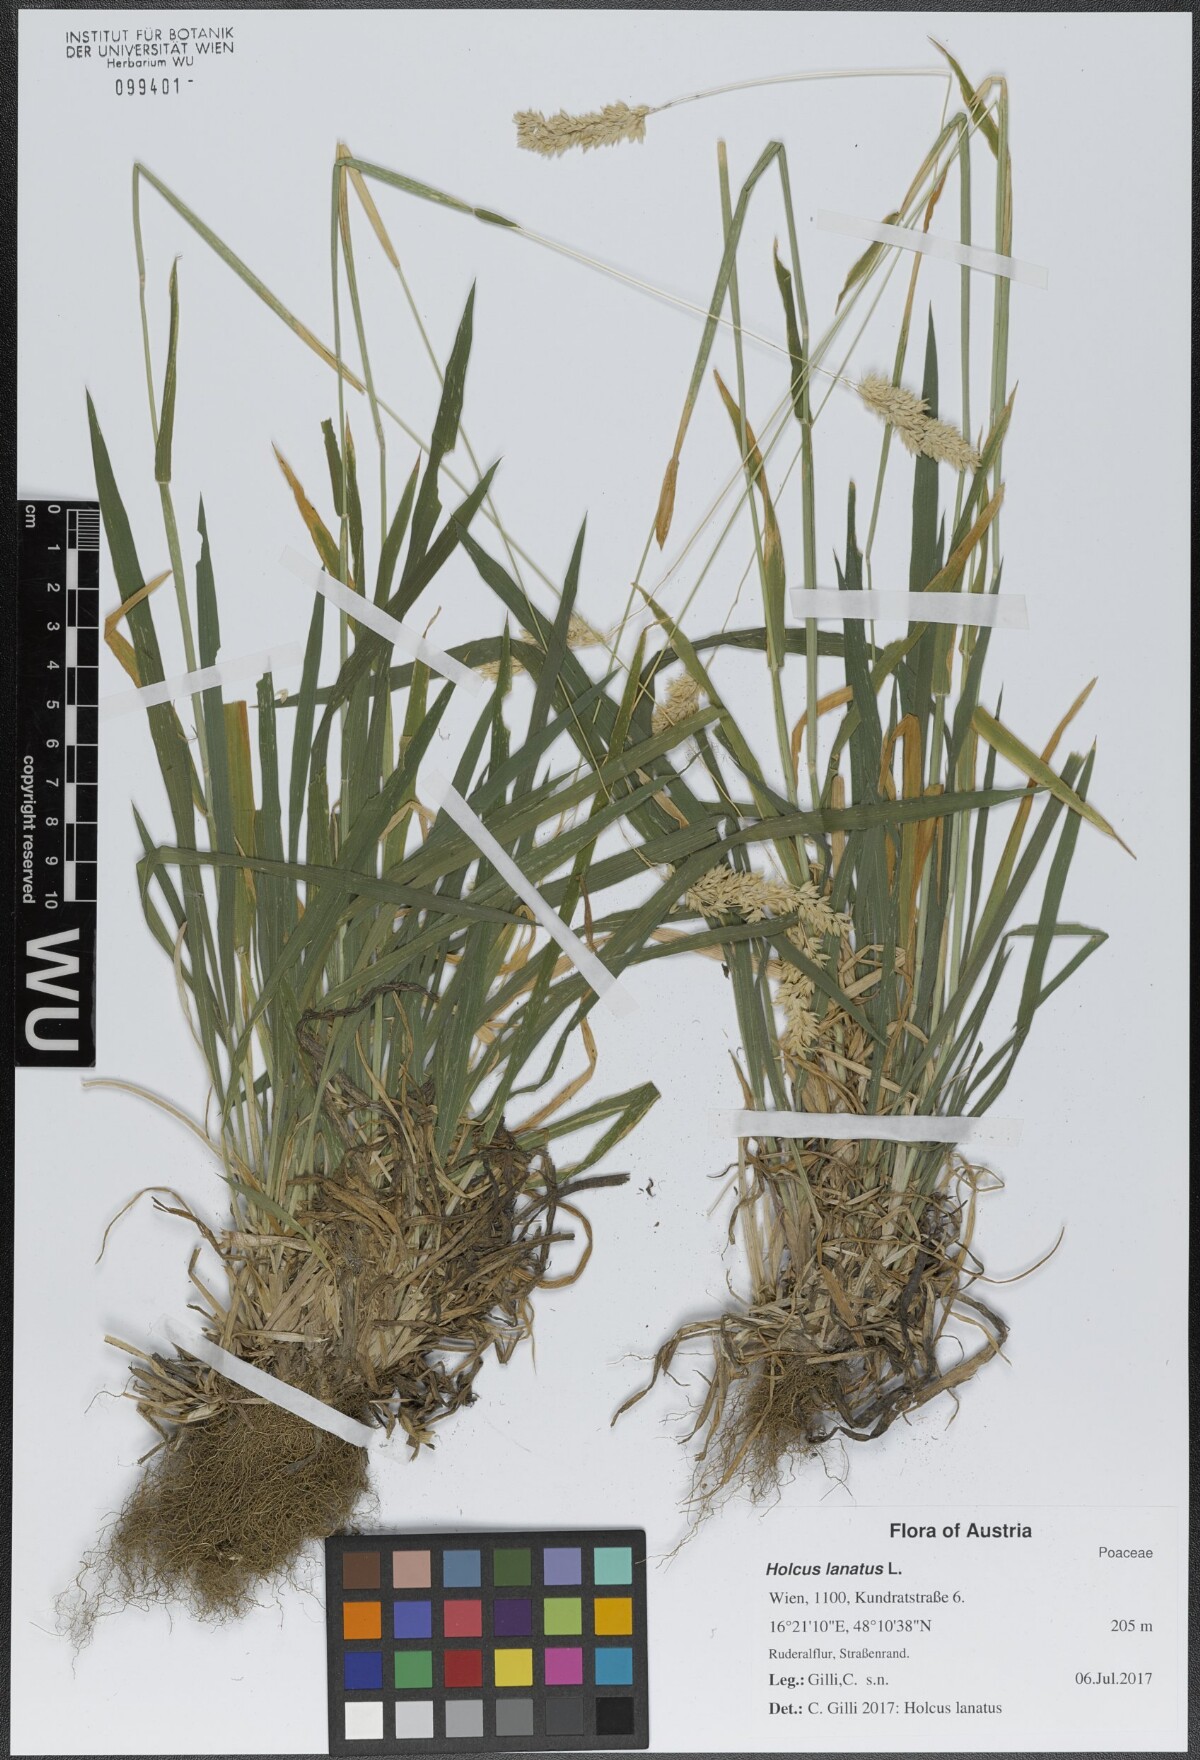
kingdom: Plantae
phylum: Tracheophyta
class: Liliopsida
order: Poales
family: Poaceae
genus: Holcus
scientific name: Holcus lanatus
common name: Yorkshire-fog
